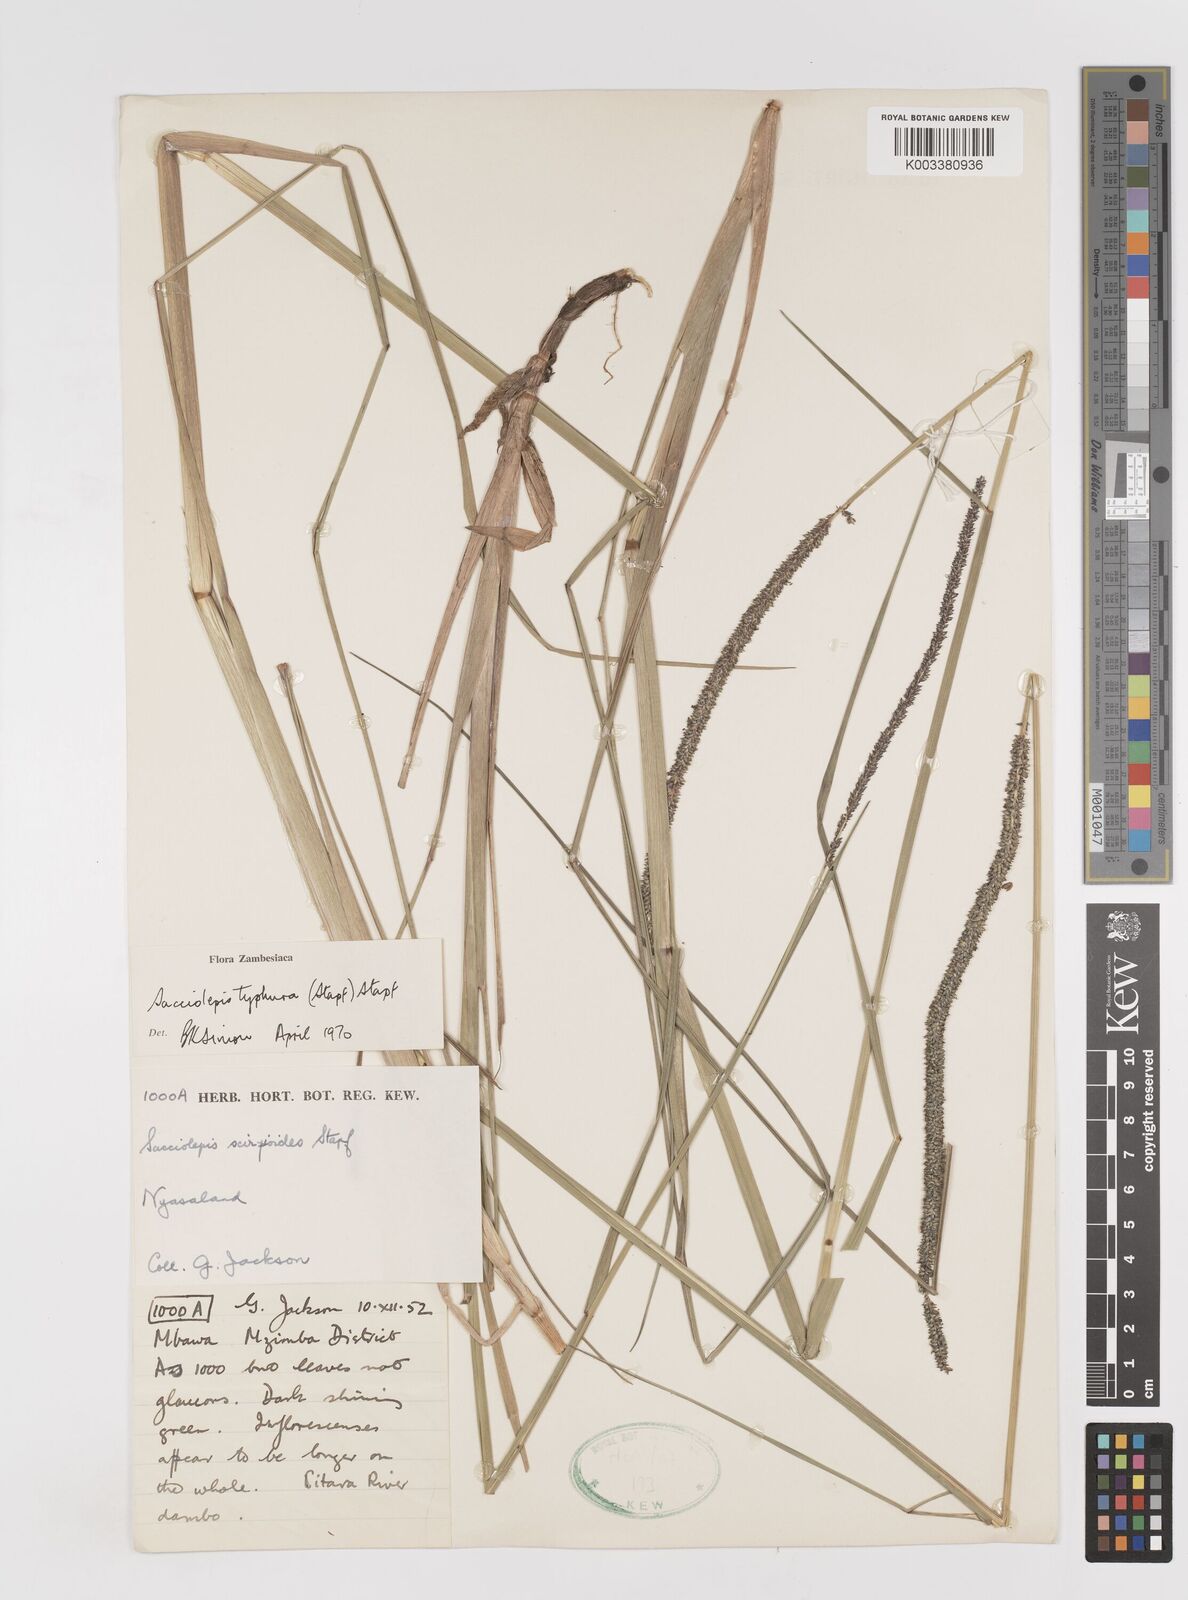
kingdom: Plantae
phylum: Tracheophyta
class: Liliopsida
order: Poales
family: Poaceae
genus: Sacciolepis
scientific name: Sacciolepis typhura
